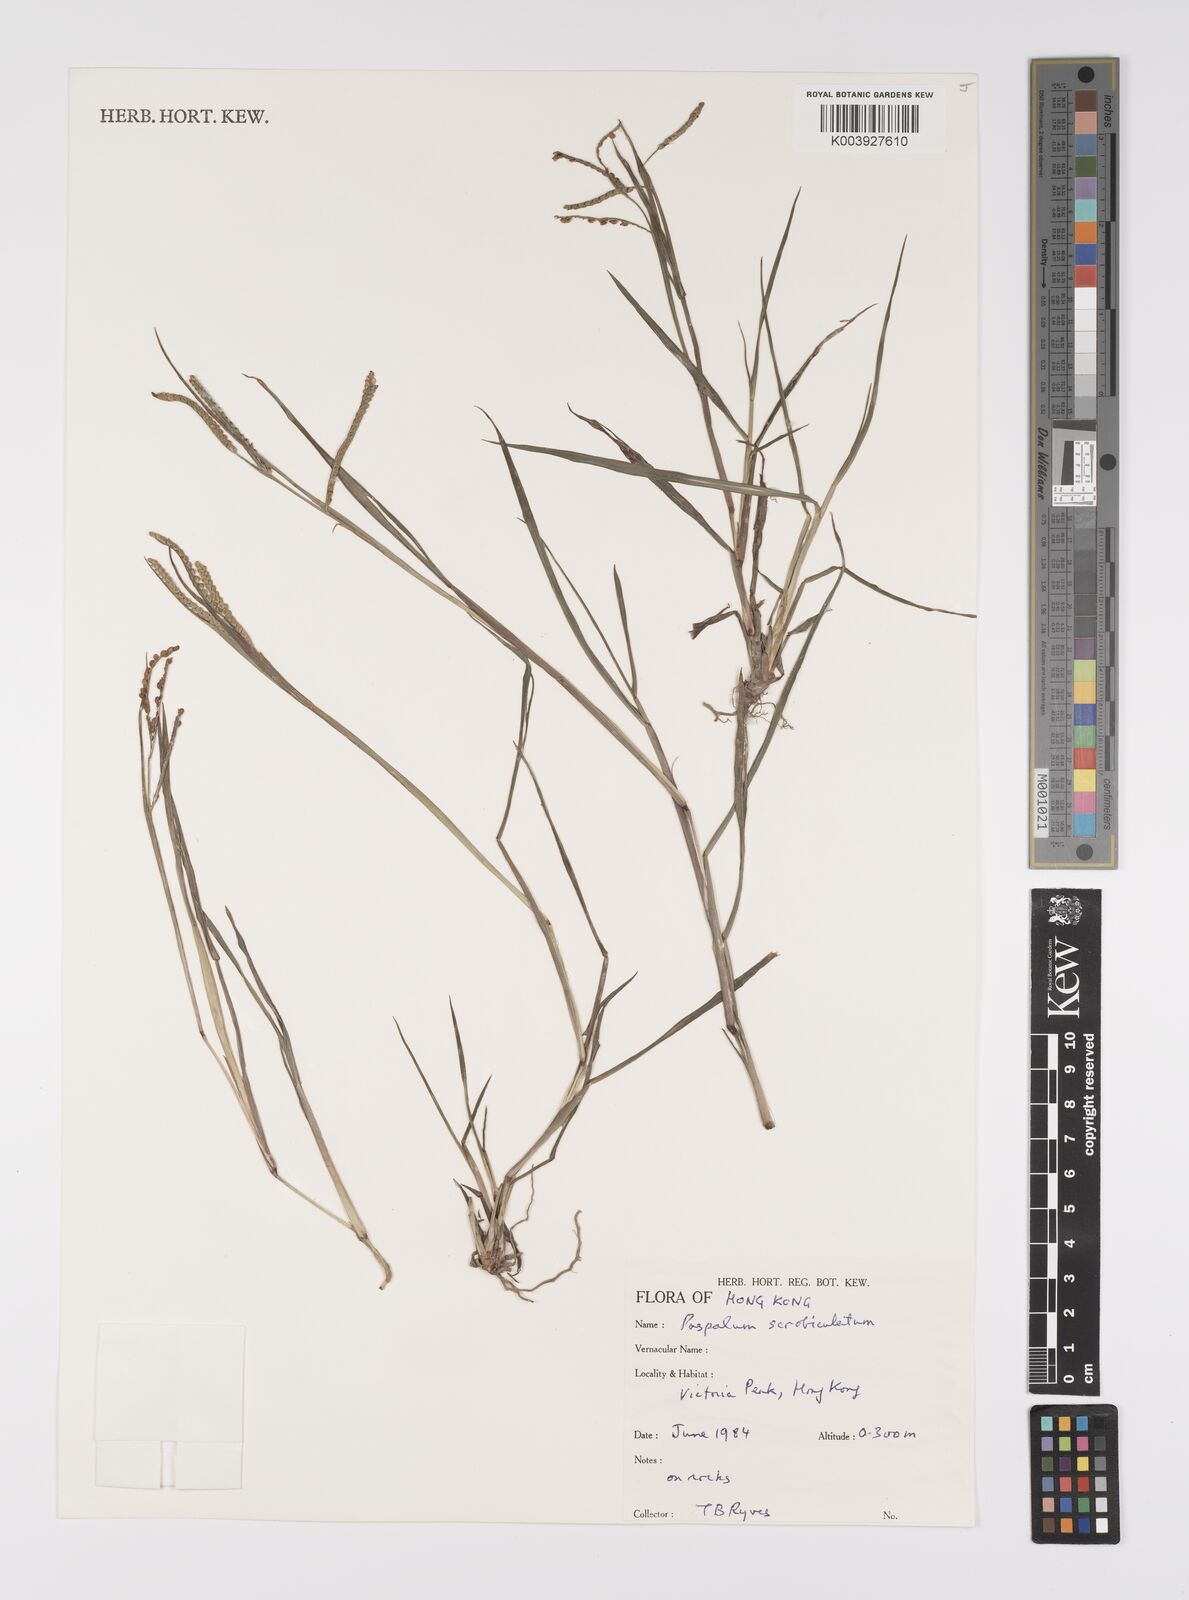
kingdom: Plantae
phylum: Tracheophyta
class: Liliopsida
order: Poales
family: Poaceae
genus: Paspalum
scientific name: Paspalum scrobiculatum
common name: Kodo millet
